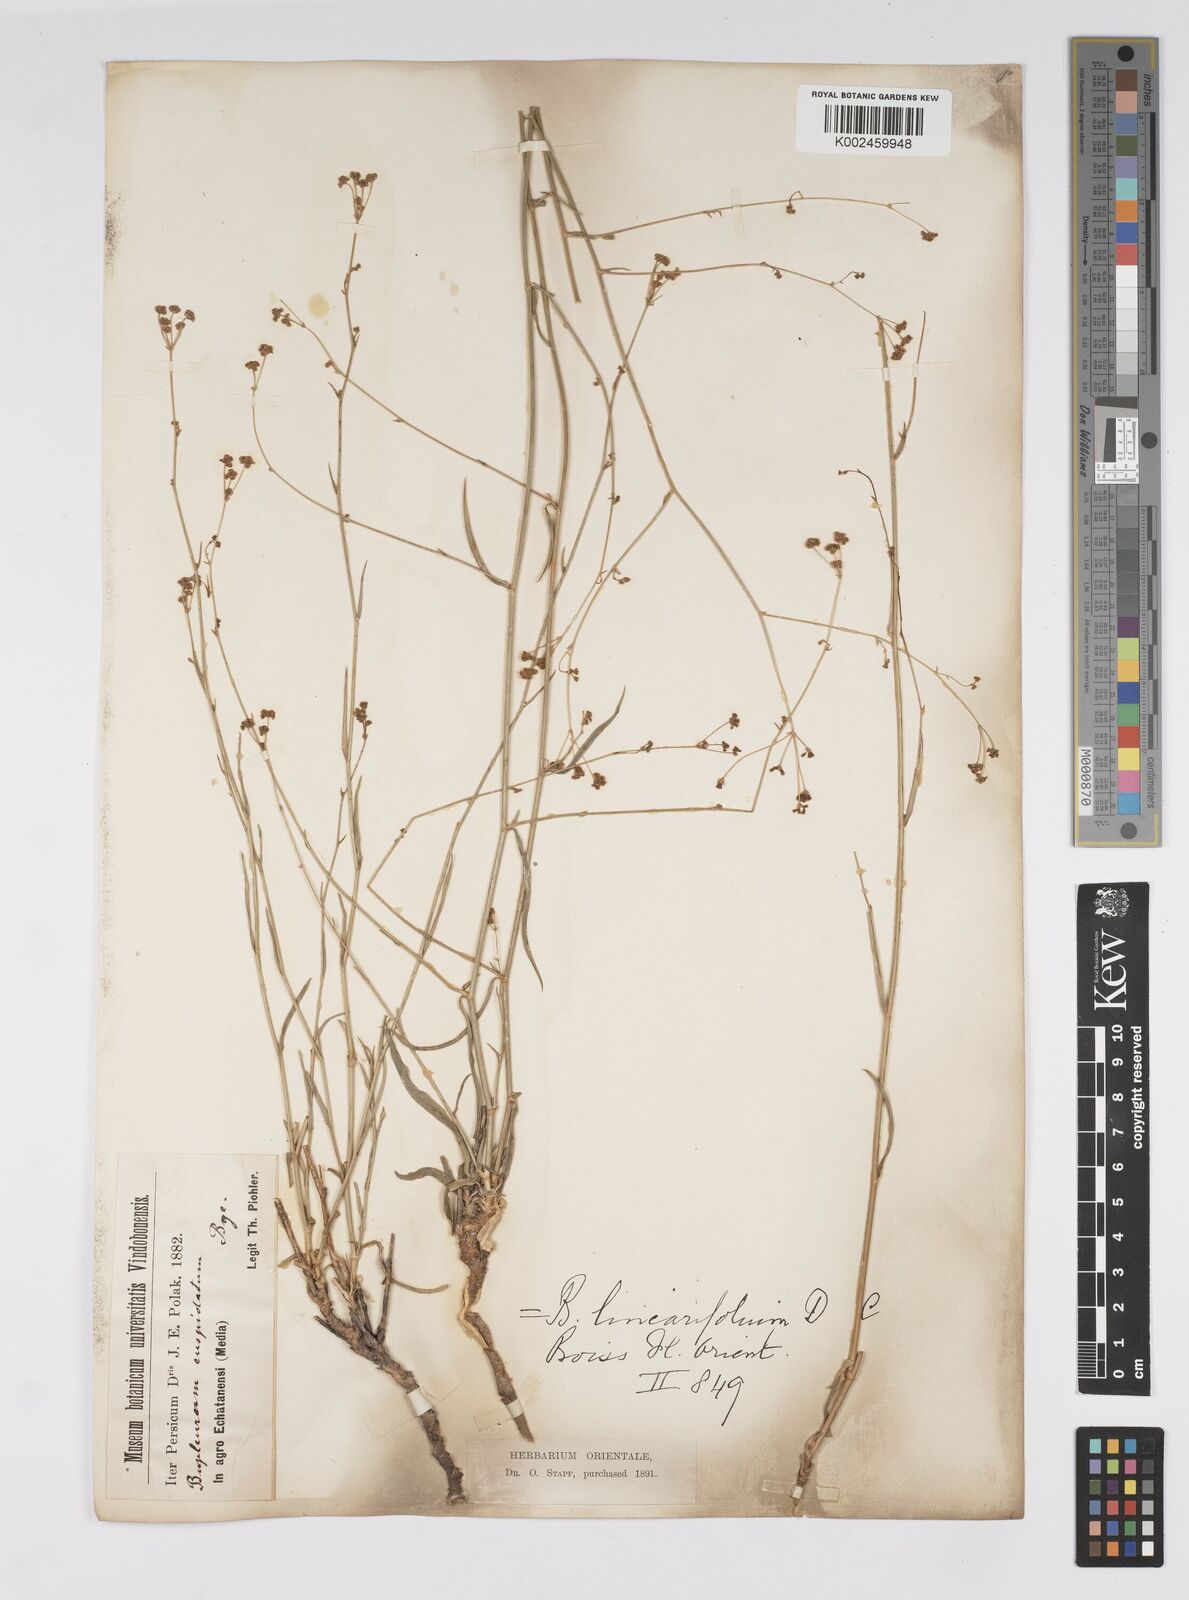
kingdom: Plantae
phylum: Tracheophyta
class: Magnoliopsida
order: Apiales
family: Apiaceae
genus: Bupleurum
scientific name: Bupleurum falcatum
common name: Sickle-leaved hare's-ear
